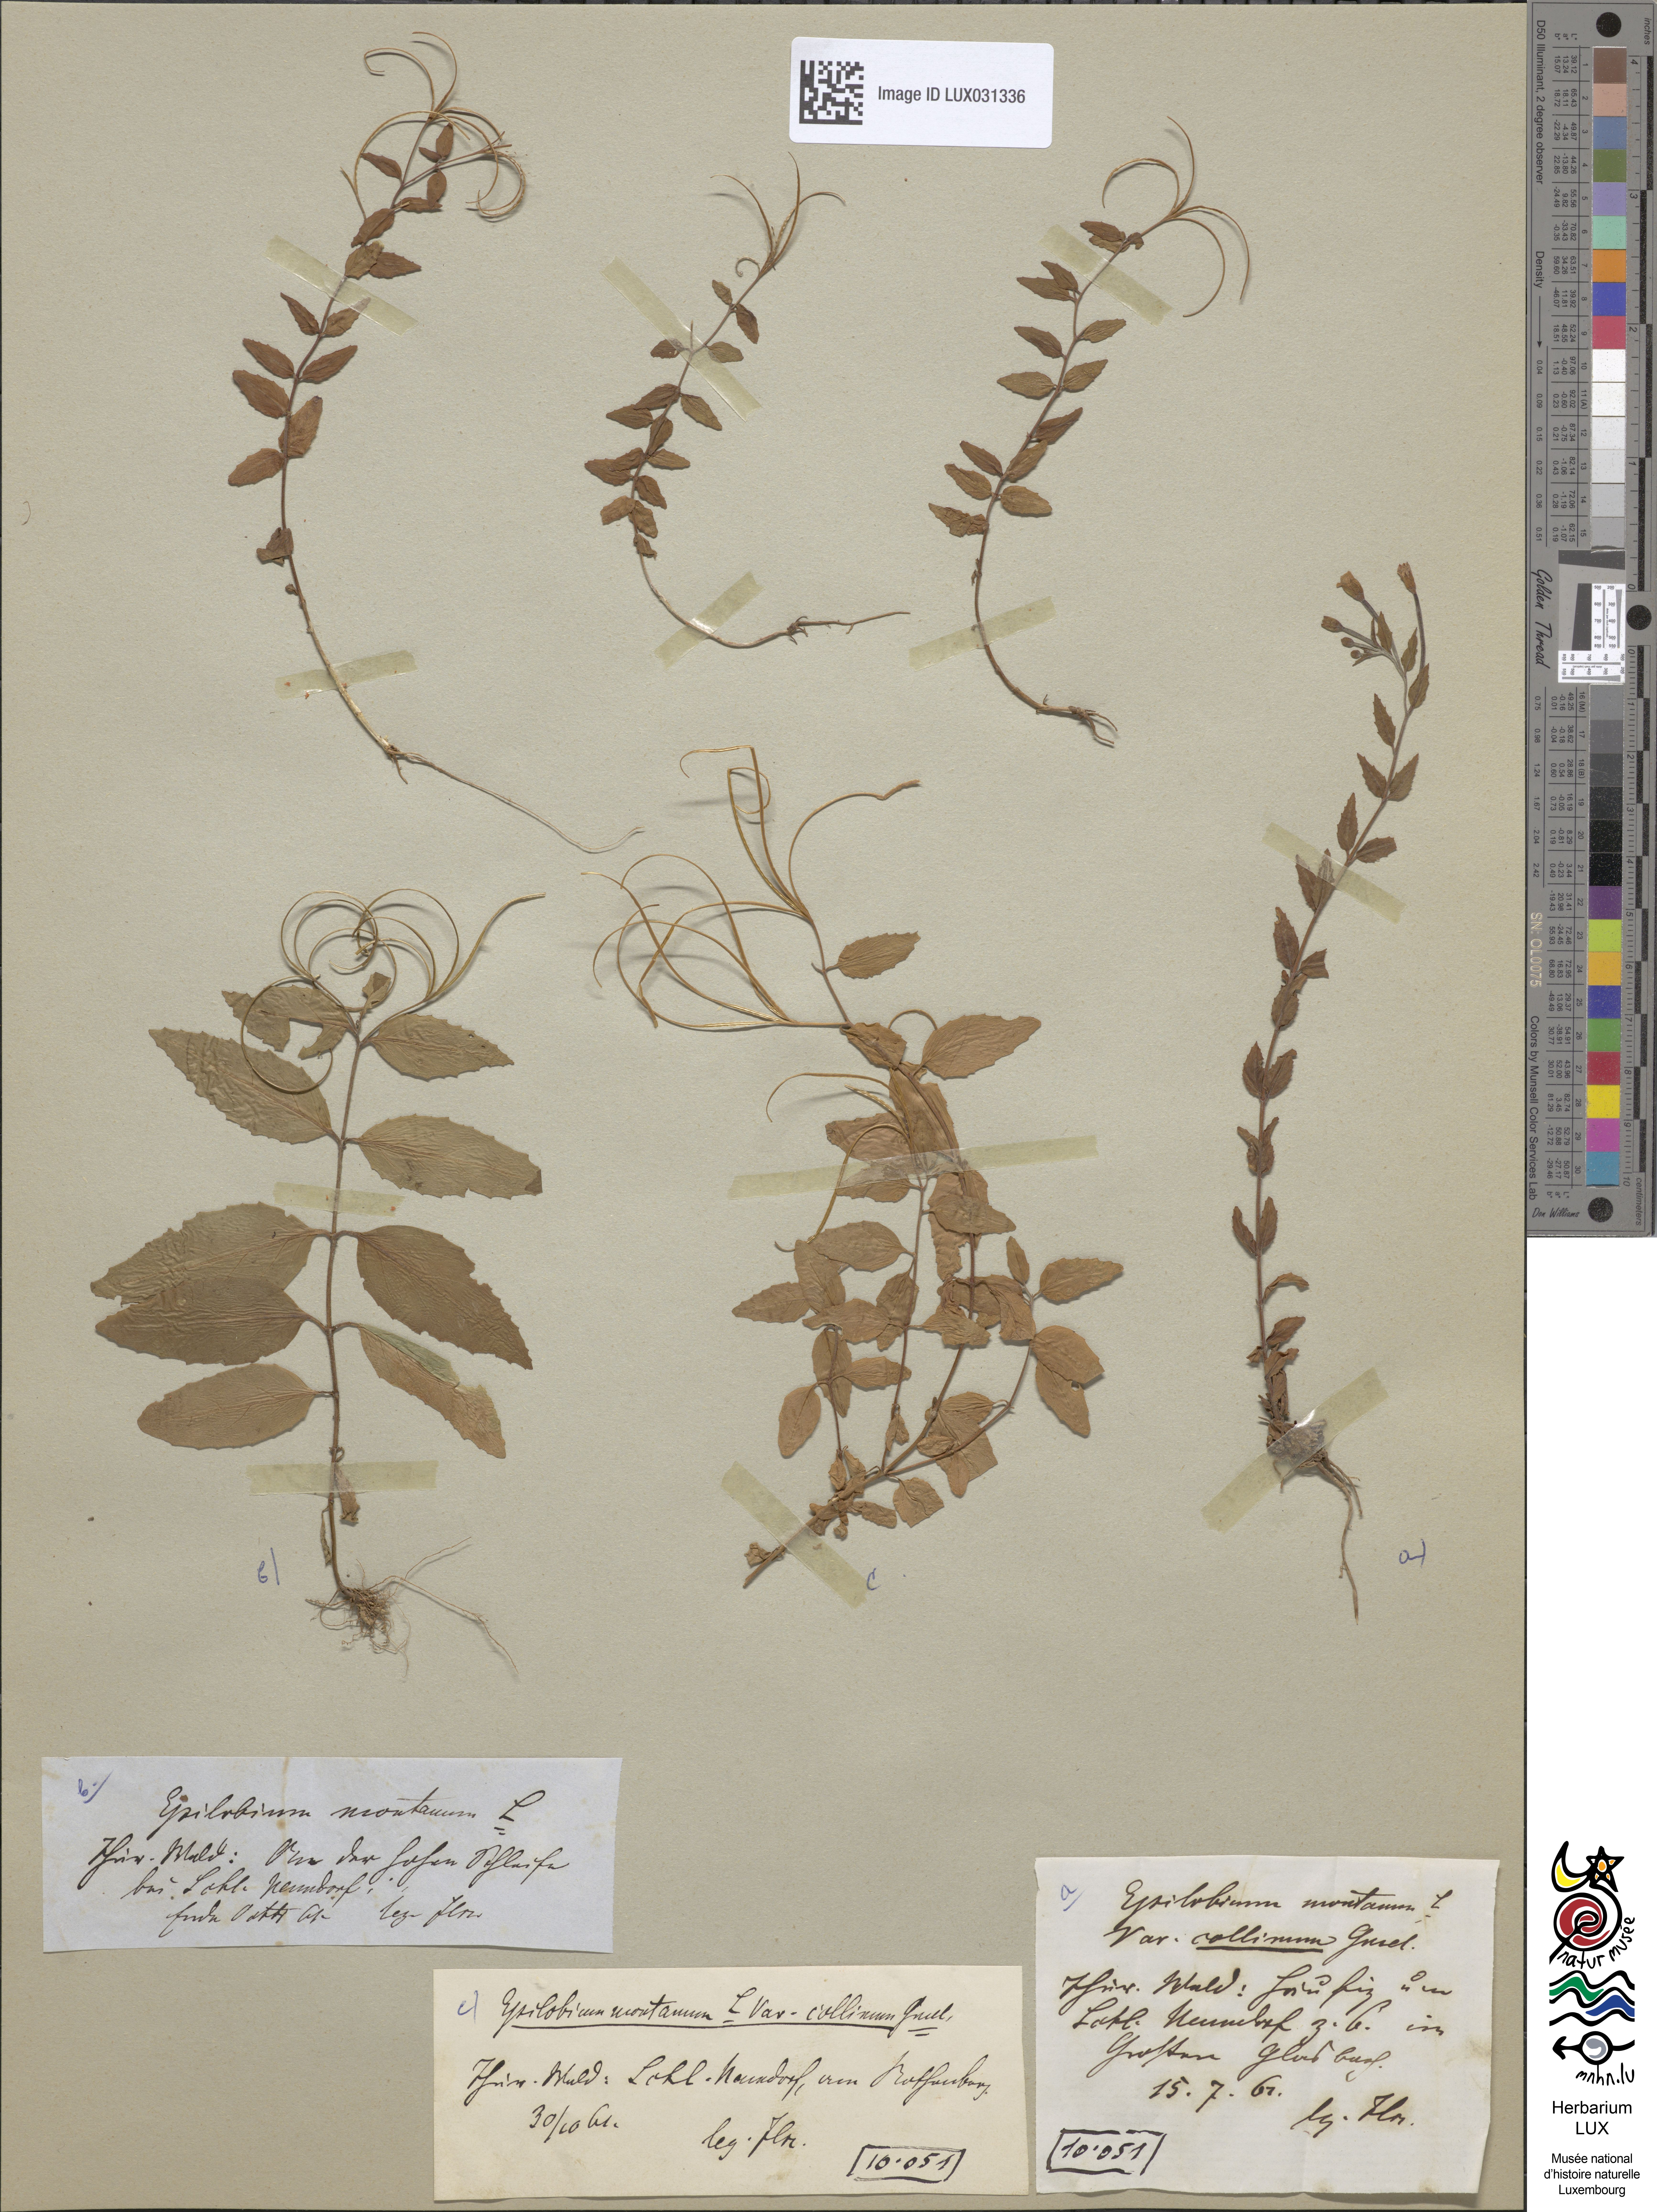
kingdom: Plantae
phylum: Tracheophyta
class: Magnoliopsida
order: Myrtales
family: Onagraceae
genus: Epilobium
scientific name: Epilobium collinum
